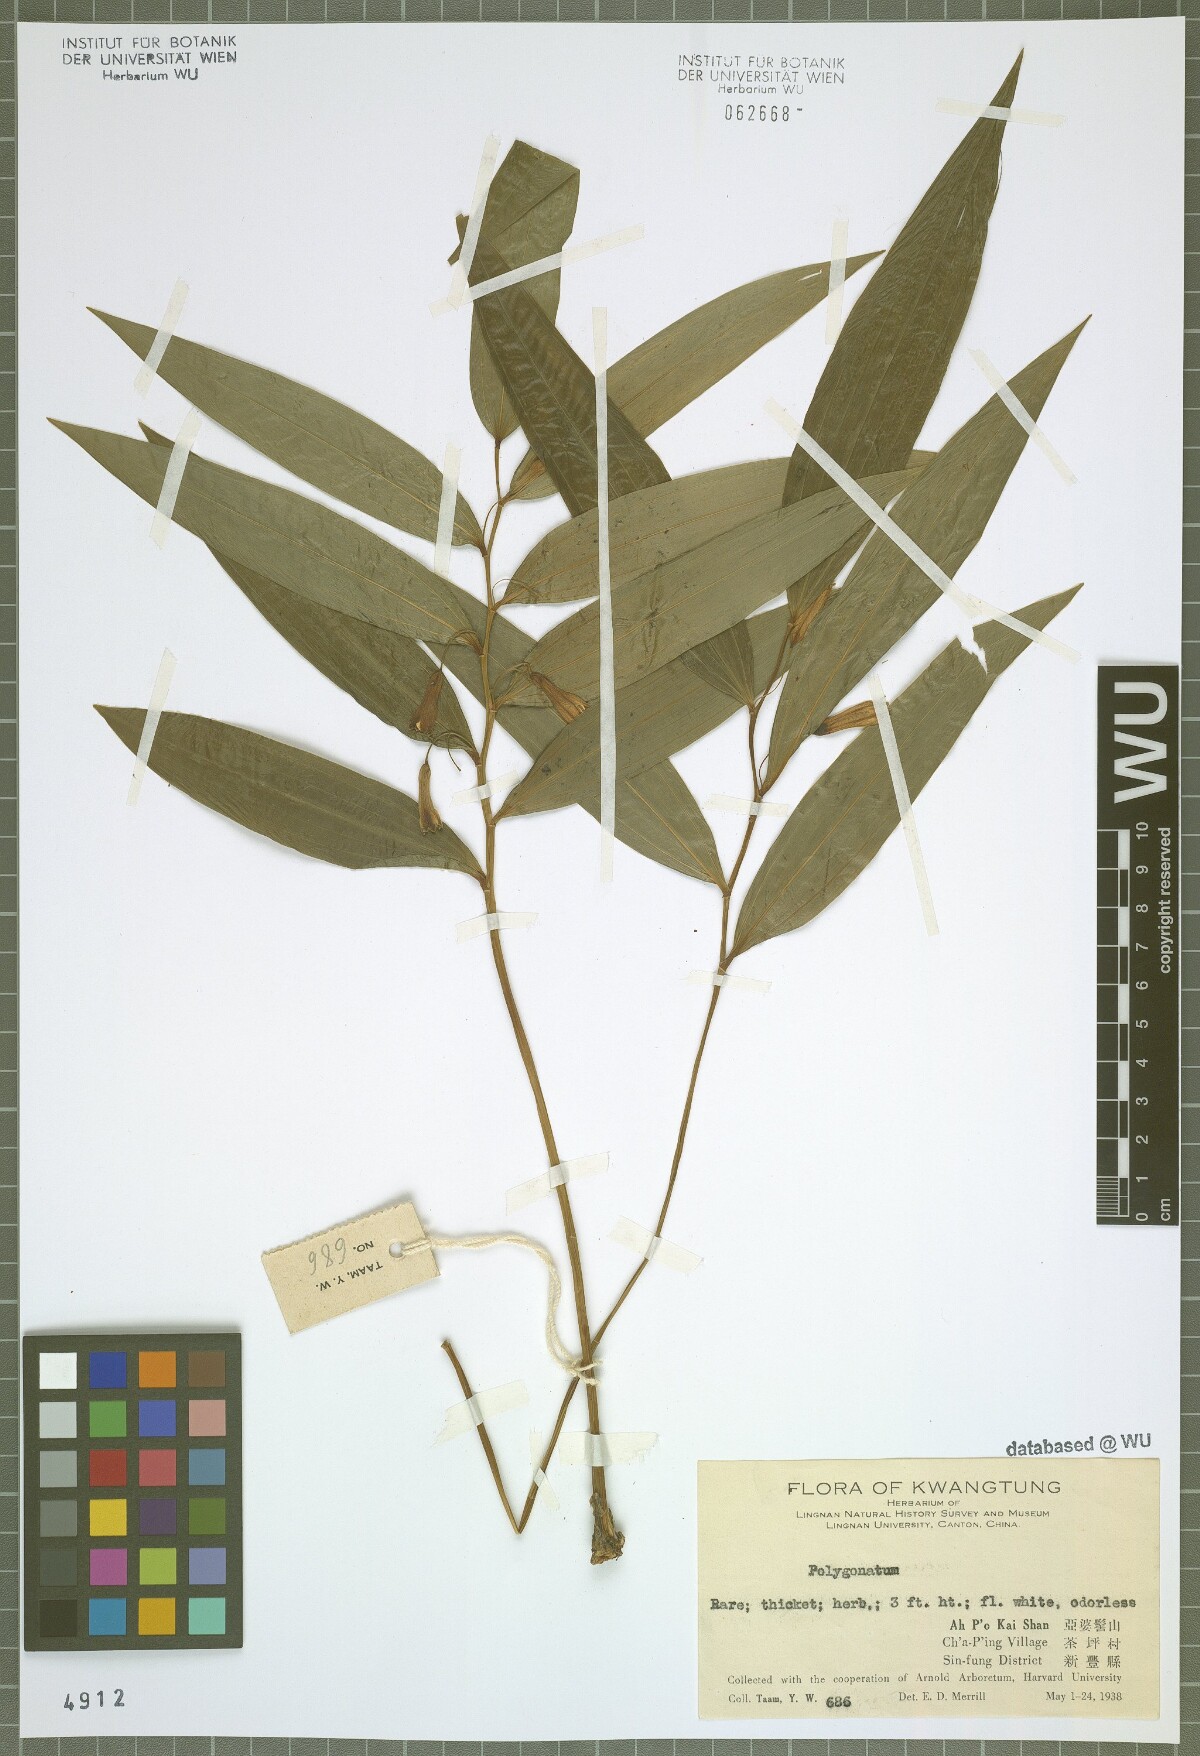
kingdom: Plantae
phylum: Tracheophyta
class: Liliopsida
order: Asparagales
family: Asparagaceae
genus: Polygonatum
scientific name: Polygonatum
